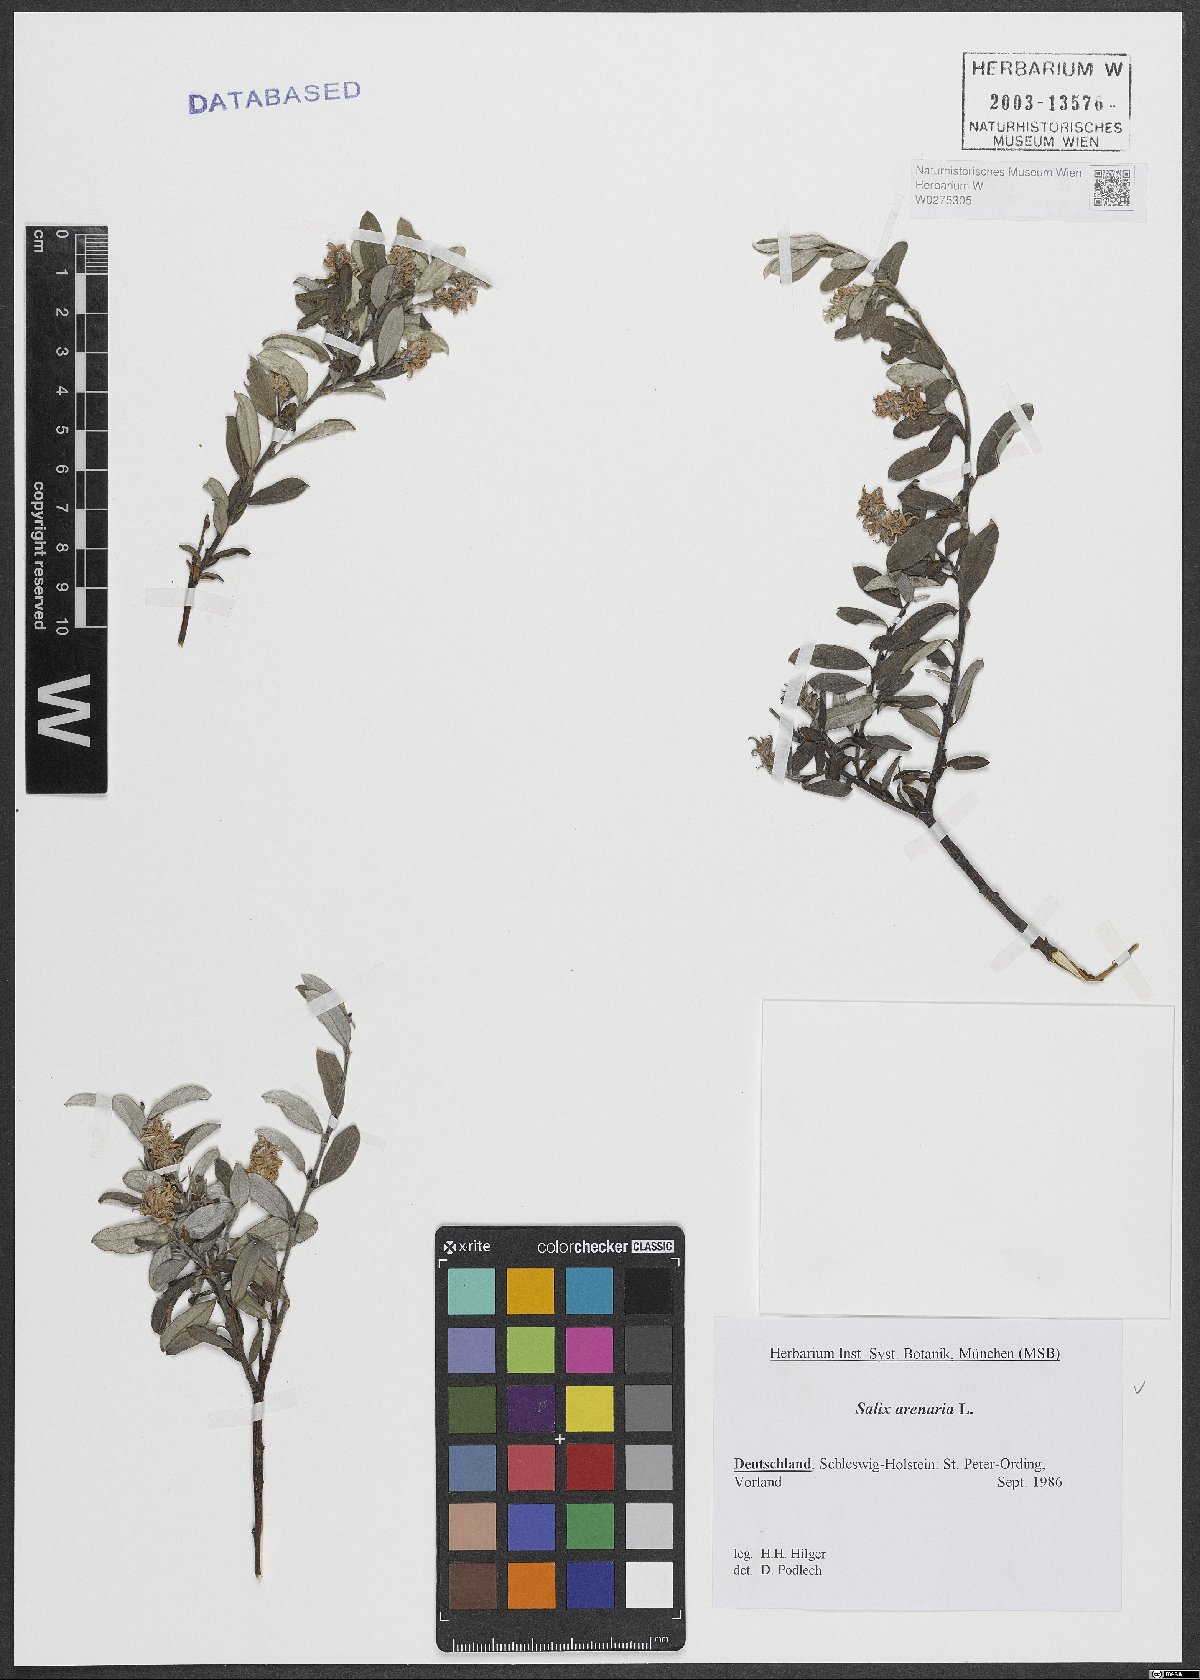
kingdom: Plantae
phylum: Tracheophyta
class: Magnoliopsida
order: Malpighiales
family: Salicaceae
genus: Salix
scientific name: Salix repens
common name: Creeping willow
